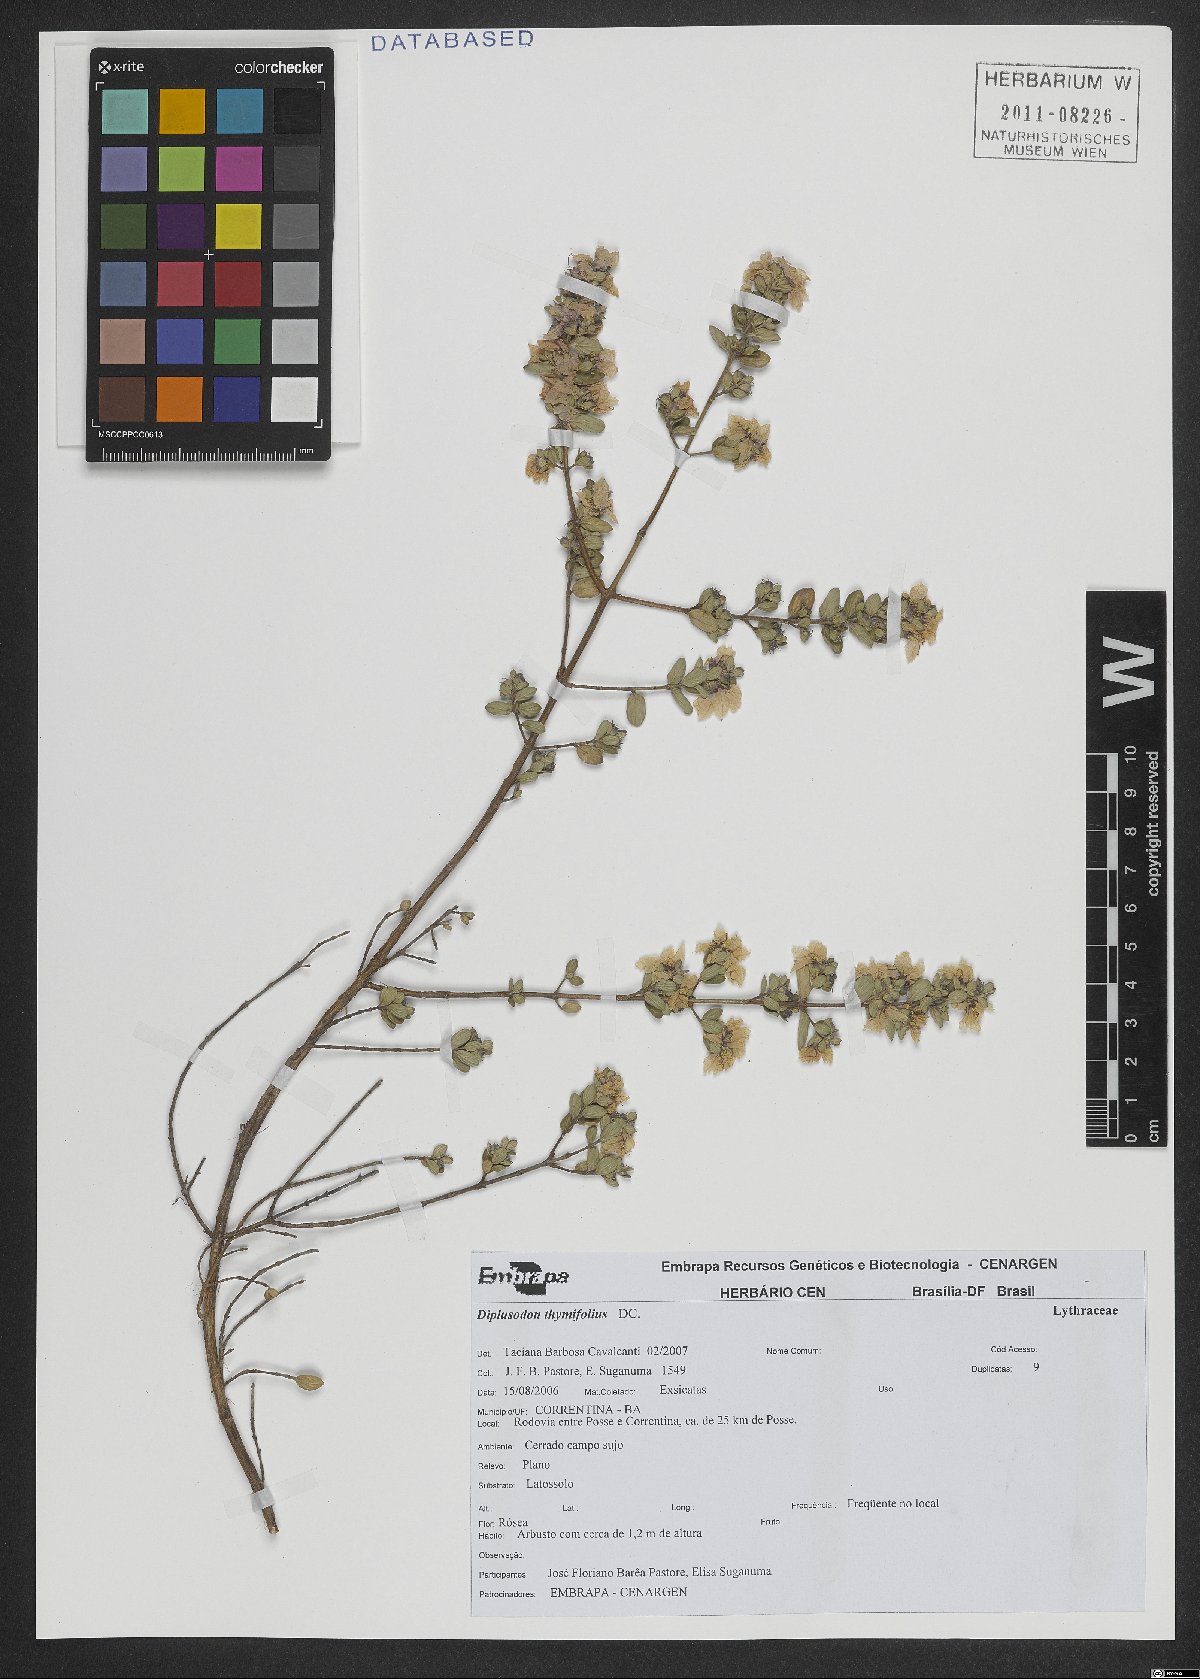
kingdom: Plantae
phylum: Tracheophyta
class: Magnoliopsida
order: Myrtales
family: Lythraceae
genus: Diplusodon
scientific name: Diplusodon thymifolius
